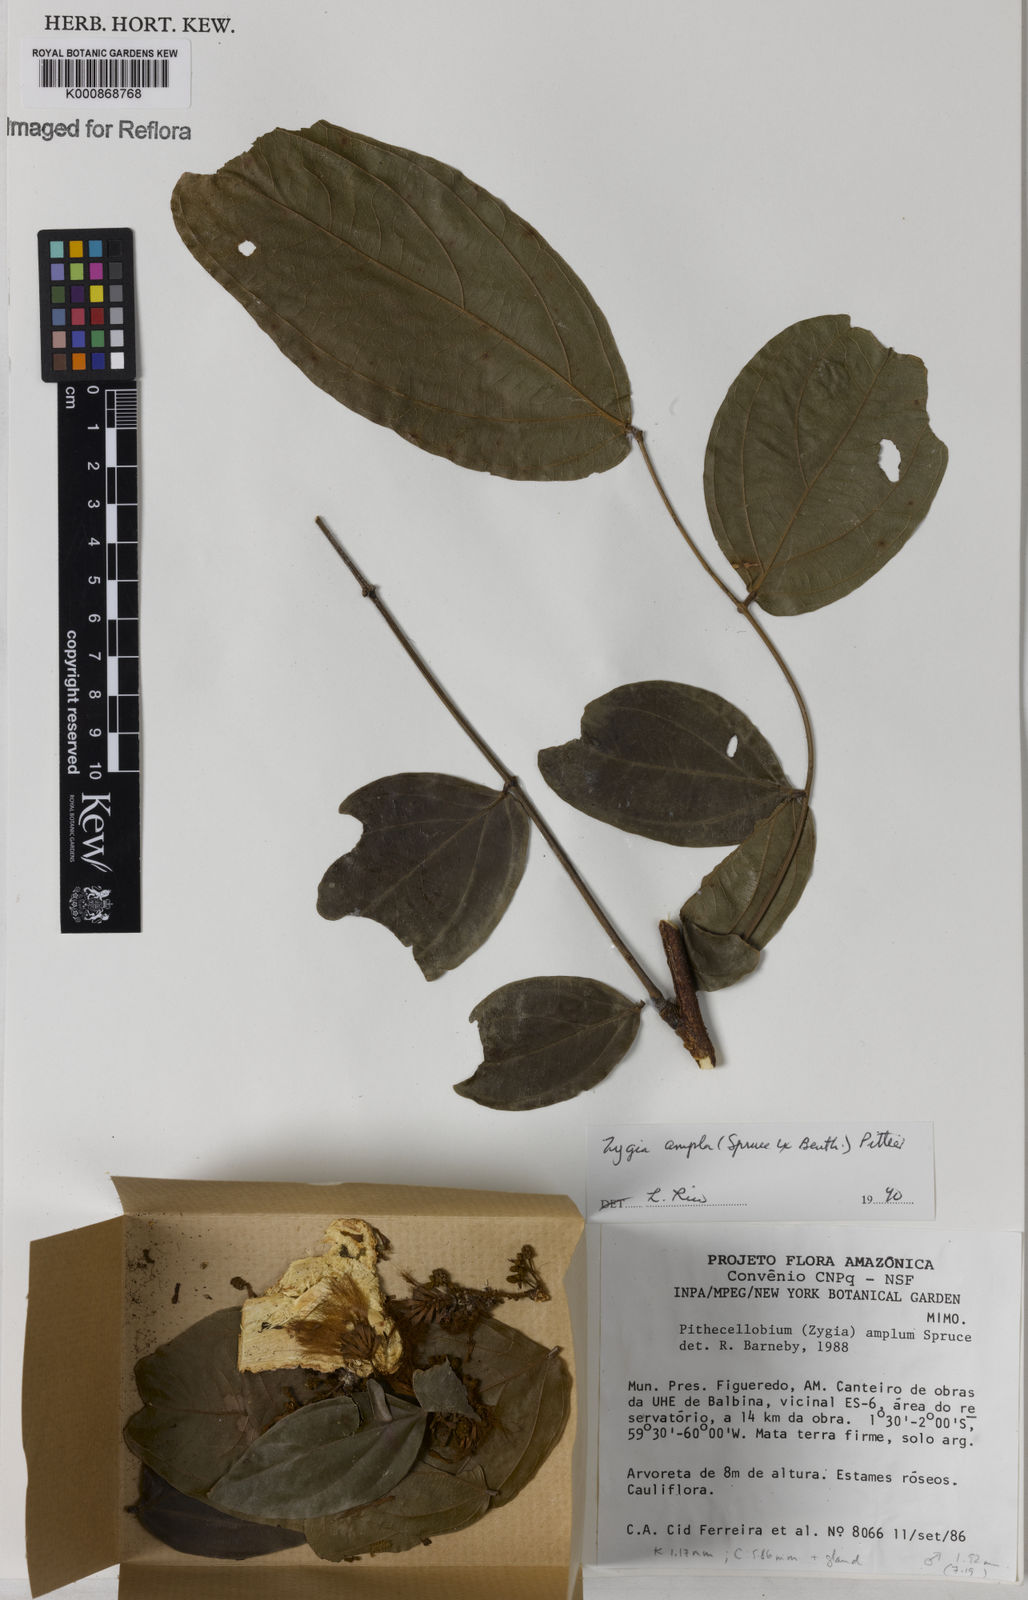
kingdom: Plantae
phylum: Tracheophyta
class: Magnoliopsida
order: Fabales
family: Fabaceae
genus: Zygia
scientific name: Zygia ampla
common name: Jarendeua de sapo
